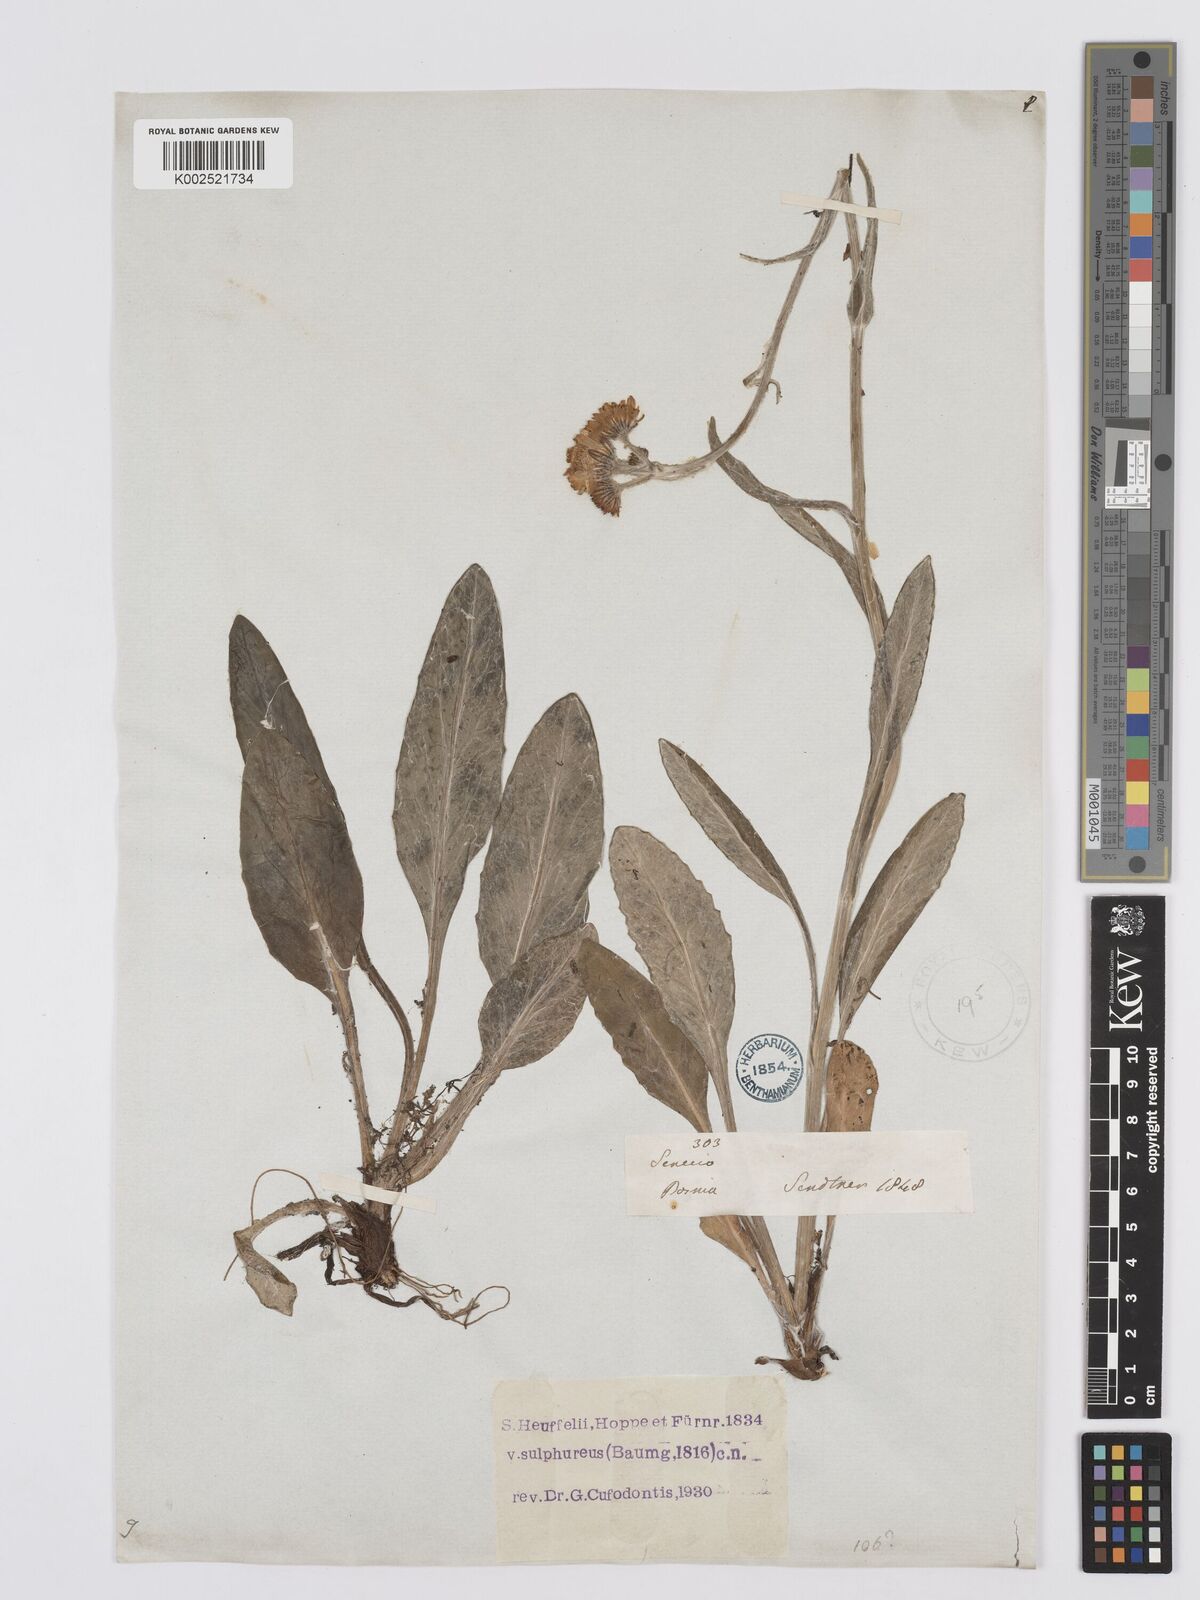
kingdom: Plantae
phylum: Tracheophyta
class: Magnoliopsida
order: Asterales
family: Asteraceae
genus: Tephroseris
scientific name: Tephroseris papposa
